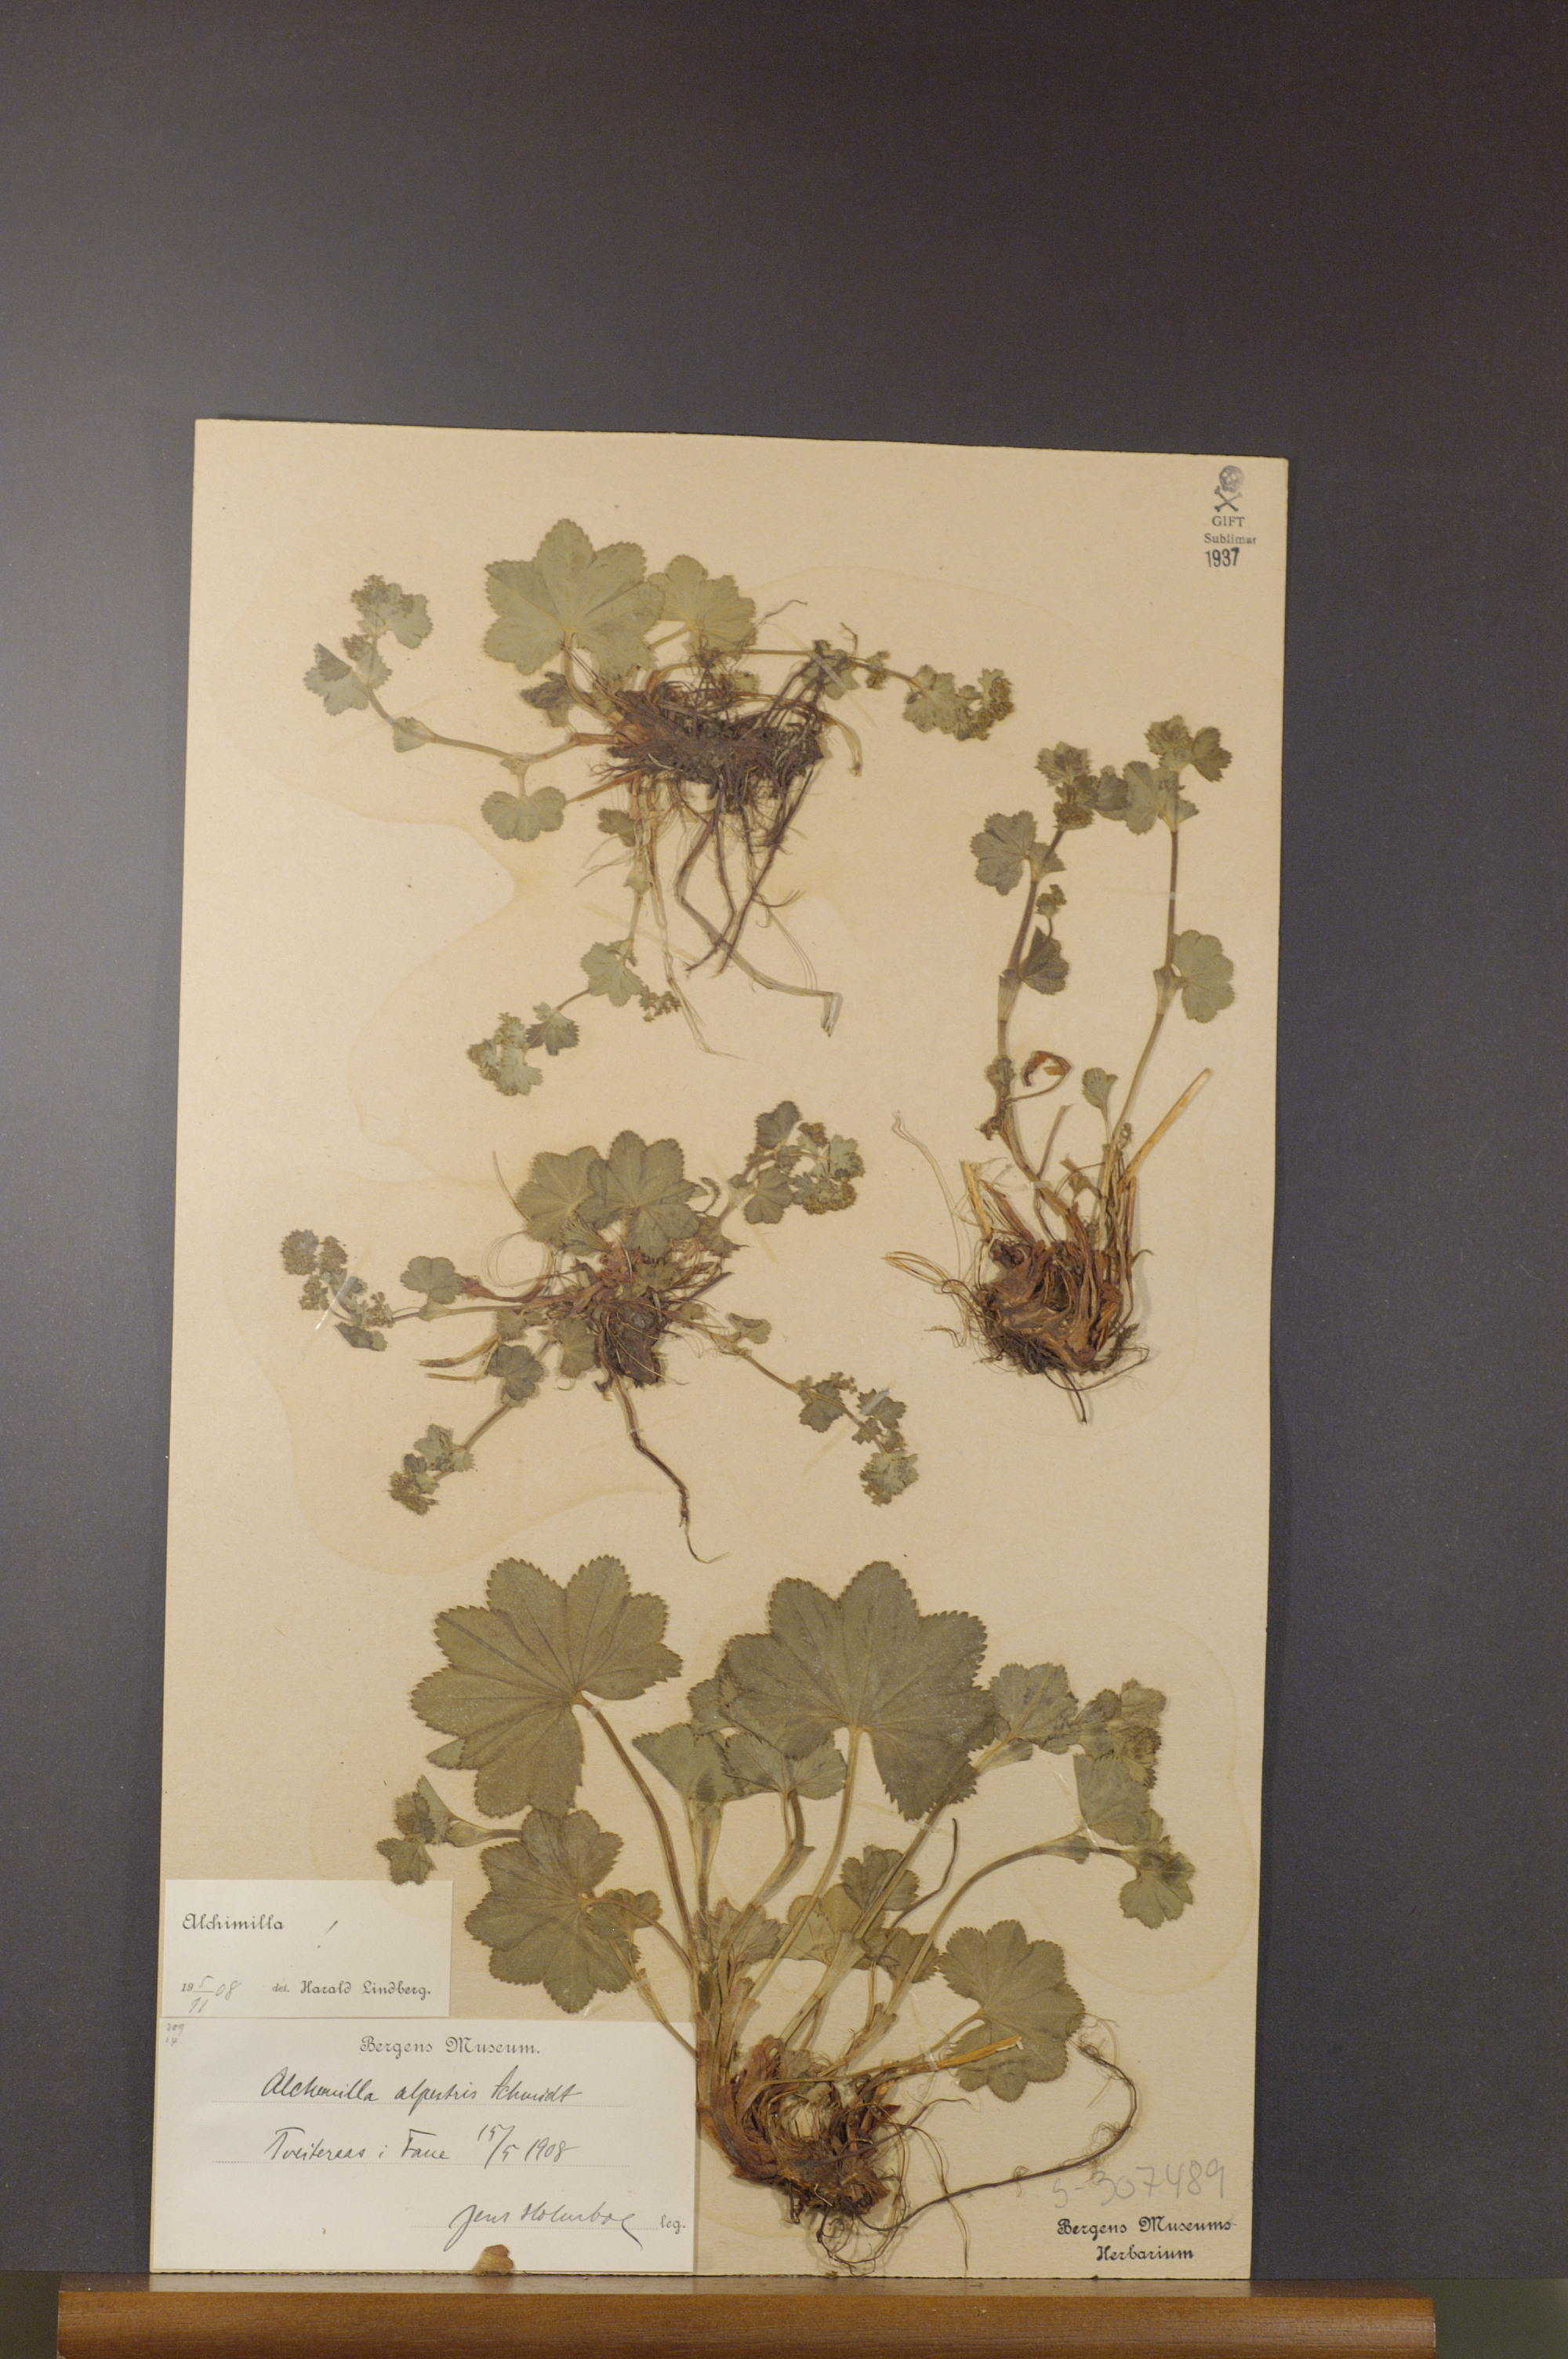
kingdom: Plantae
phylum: Tracheophyta
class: Magnoliopsida
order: Rosales
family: Rosaceae
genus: Alchemilla
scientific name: Alchemilla glabra
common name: Smooth lady's-mantle
